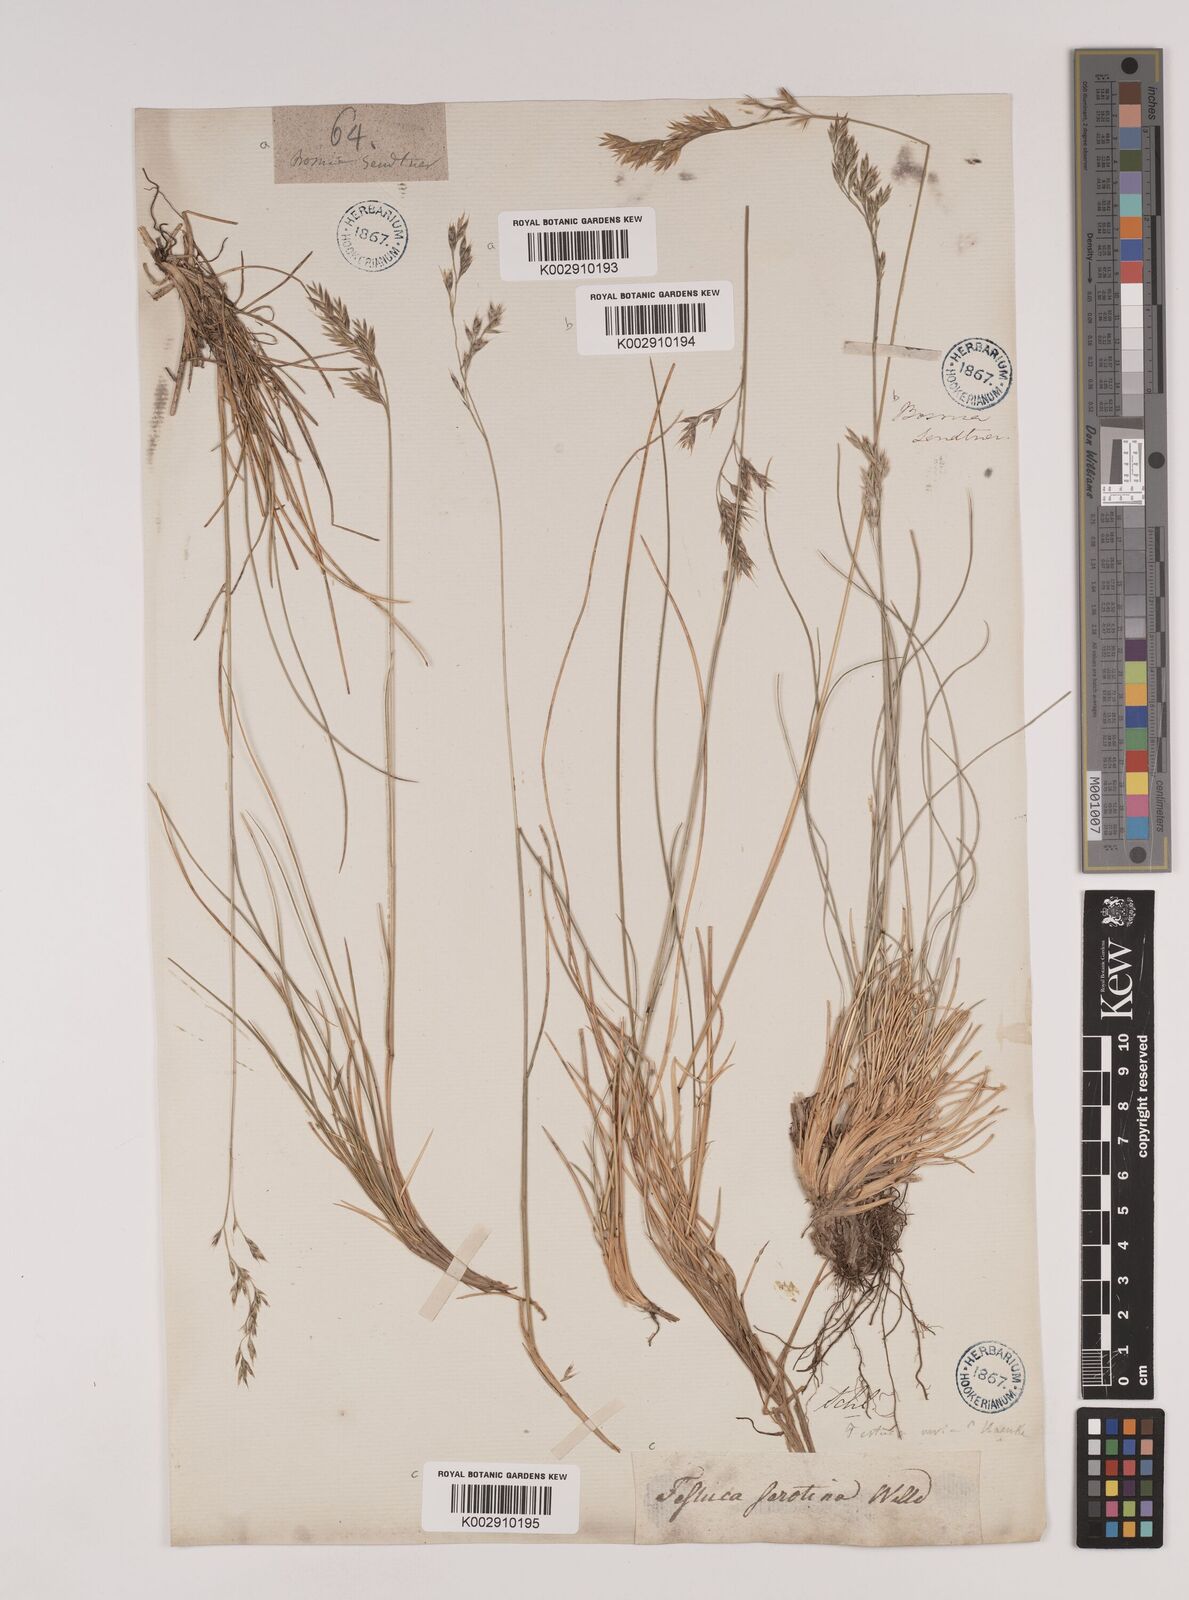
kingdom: Plantae
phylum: Tracheophyta
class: Liliopsida
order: Poales
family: Poaceae
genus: Festuca
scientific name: Festuca varia
